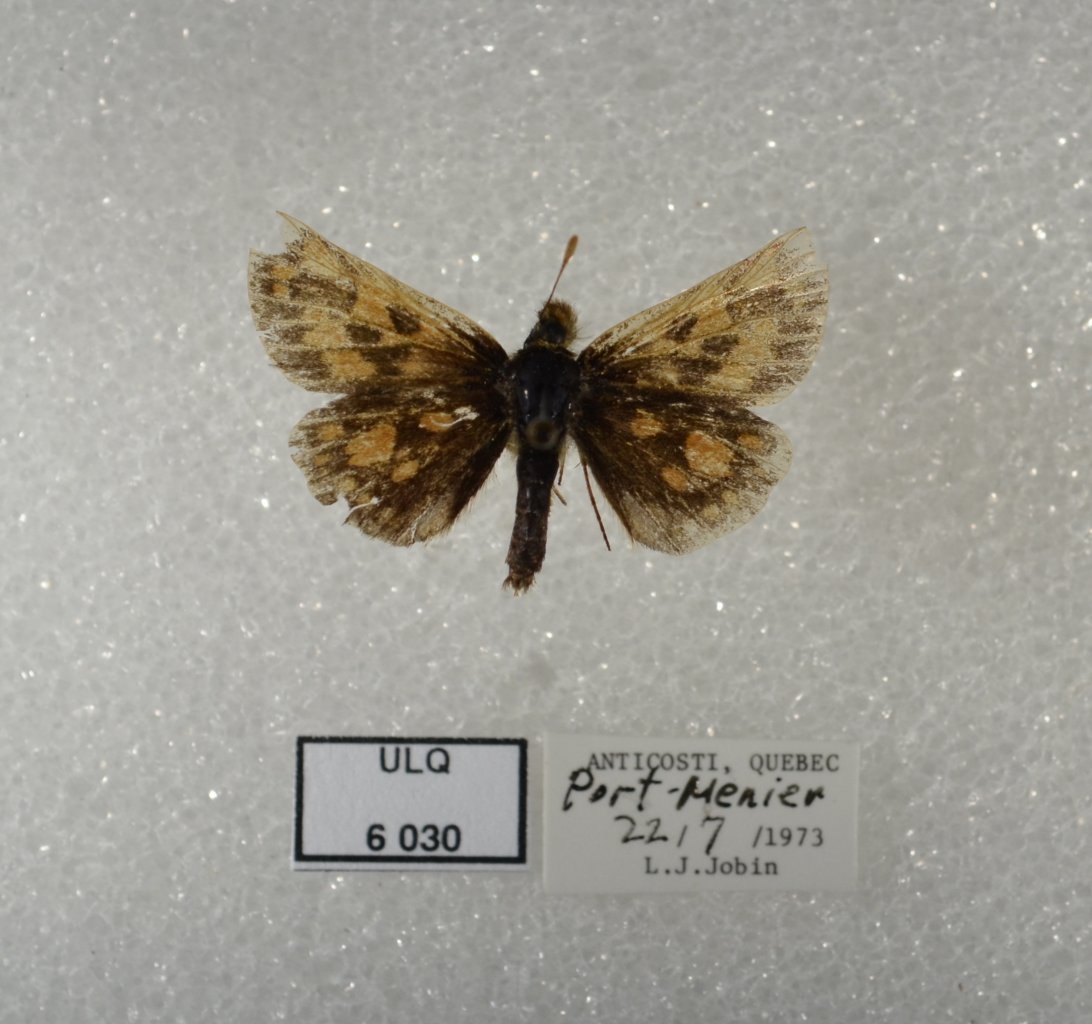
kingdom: Animalia
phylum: Arthropoda
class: Insecta
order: Lepidoptera
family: Hesperiidae
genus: Carterocephalus
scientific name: Carterocephalus palaemon
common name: Chequered Skipper
